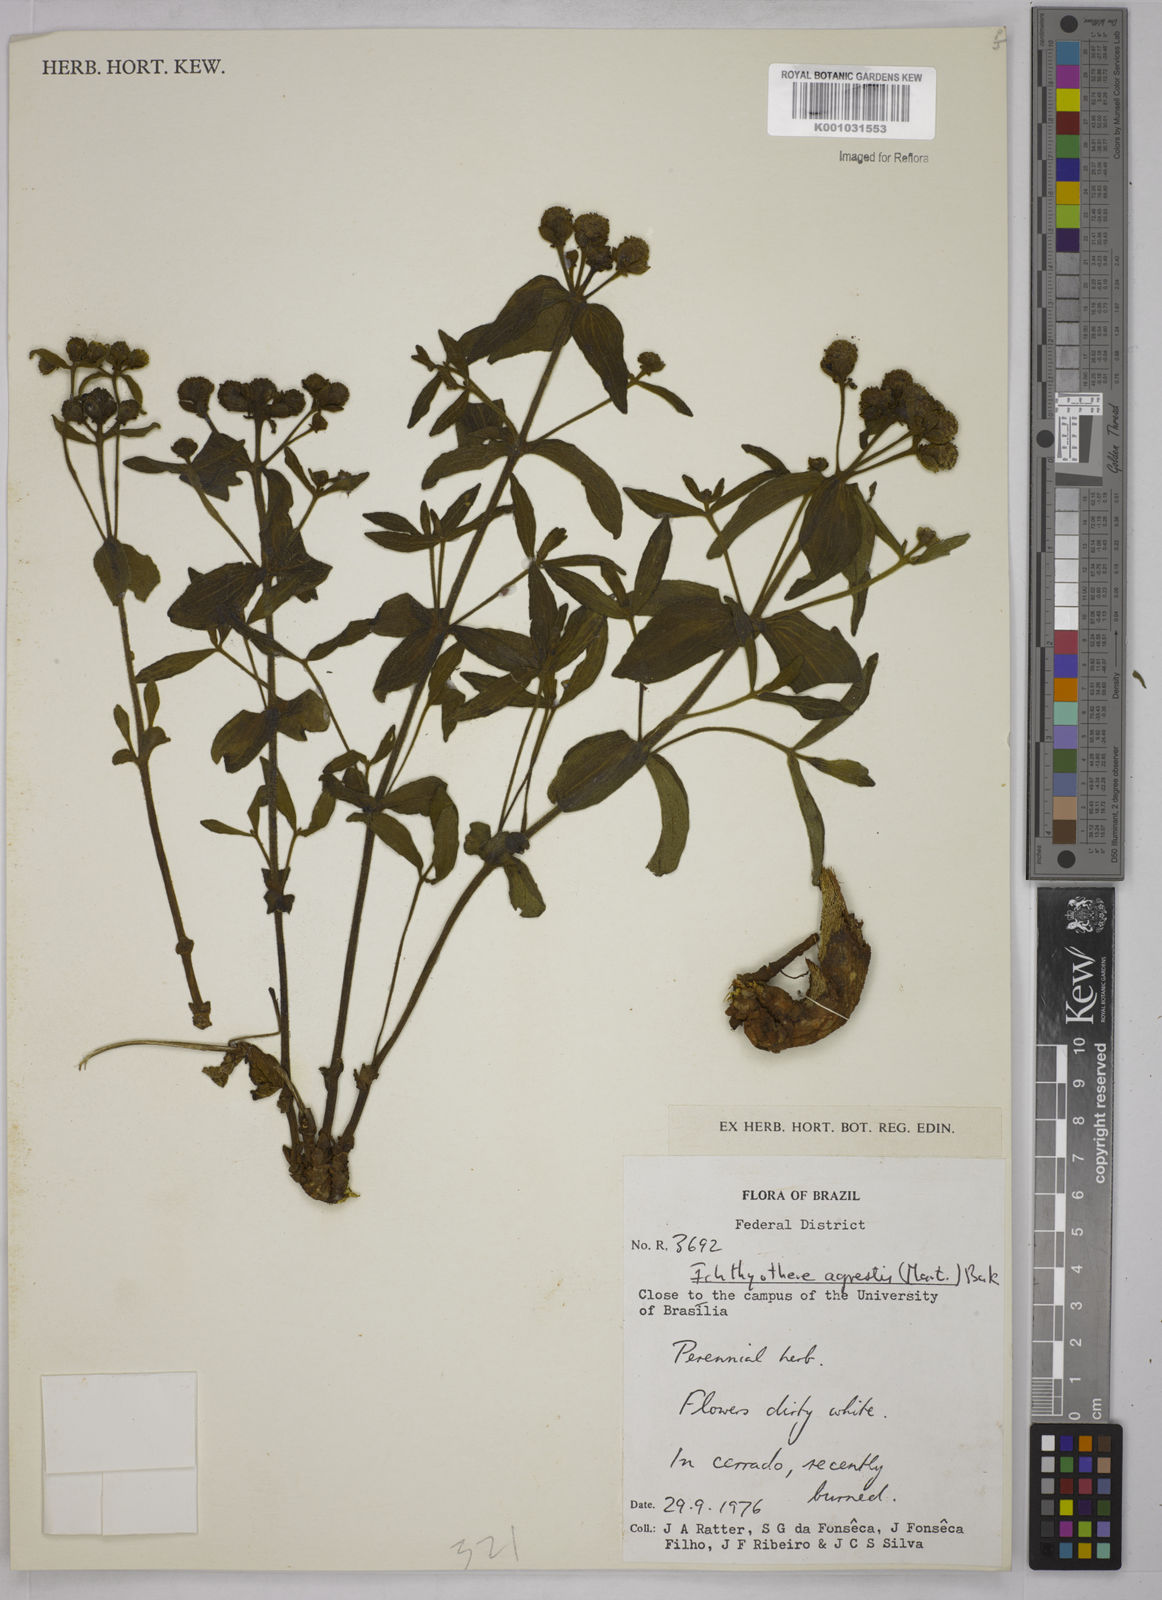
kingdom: Plantae
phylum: Tracheophyta
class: Magnoliopsida
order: Asterales
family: Asteraceae
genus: Ichthyothere
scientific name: Ichthyothere integrifolia
